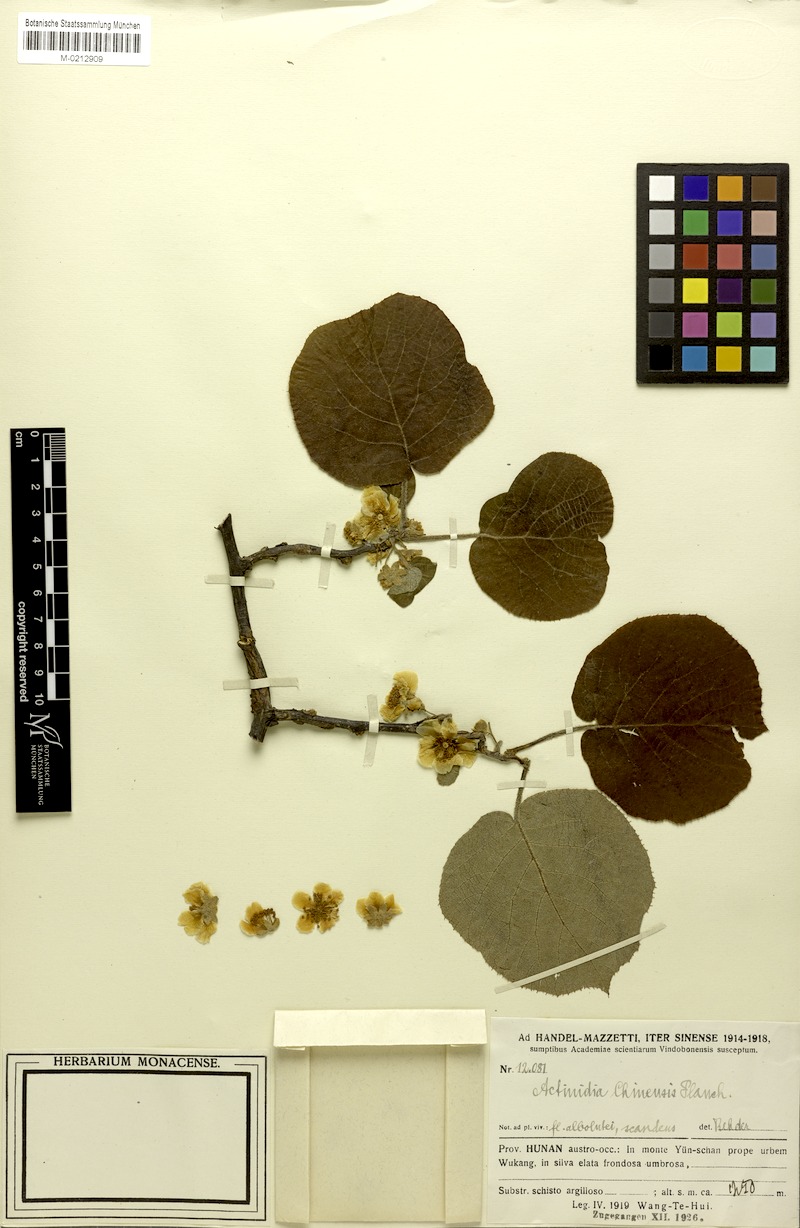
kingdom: Plantae
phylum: Tracheophyta
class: Magnoliopsida
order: Ericales
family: Actinidiaceae
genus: Actinidia
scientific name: Actinidia chinensis
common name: Kiwi
